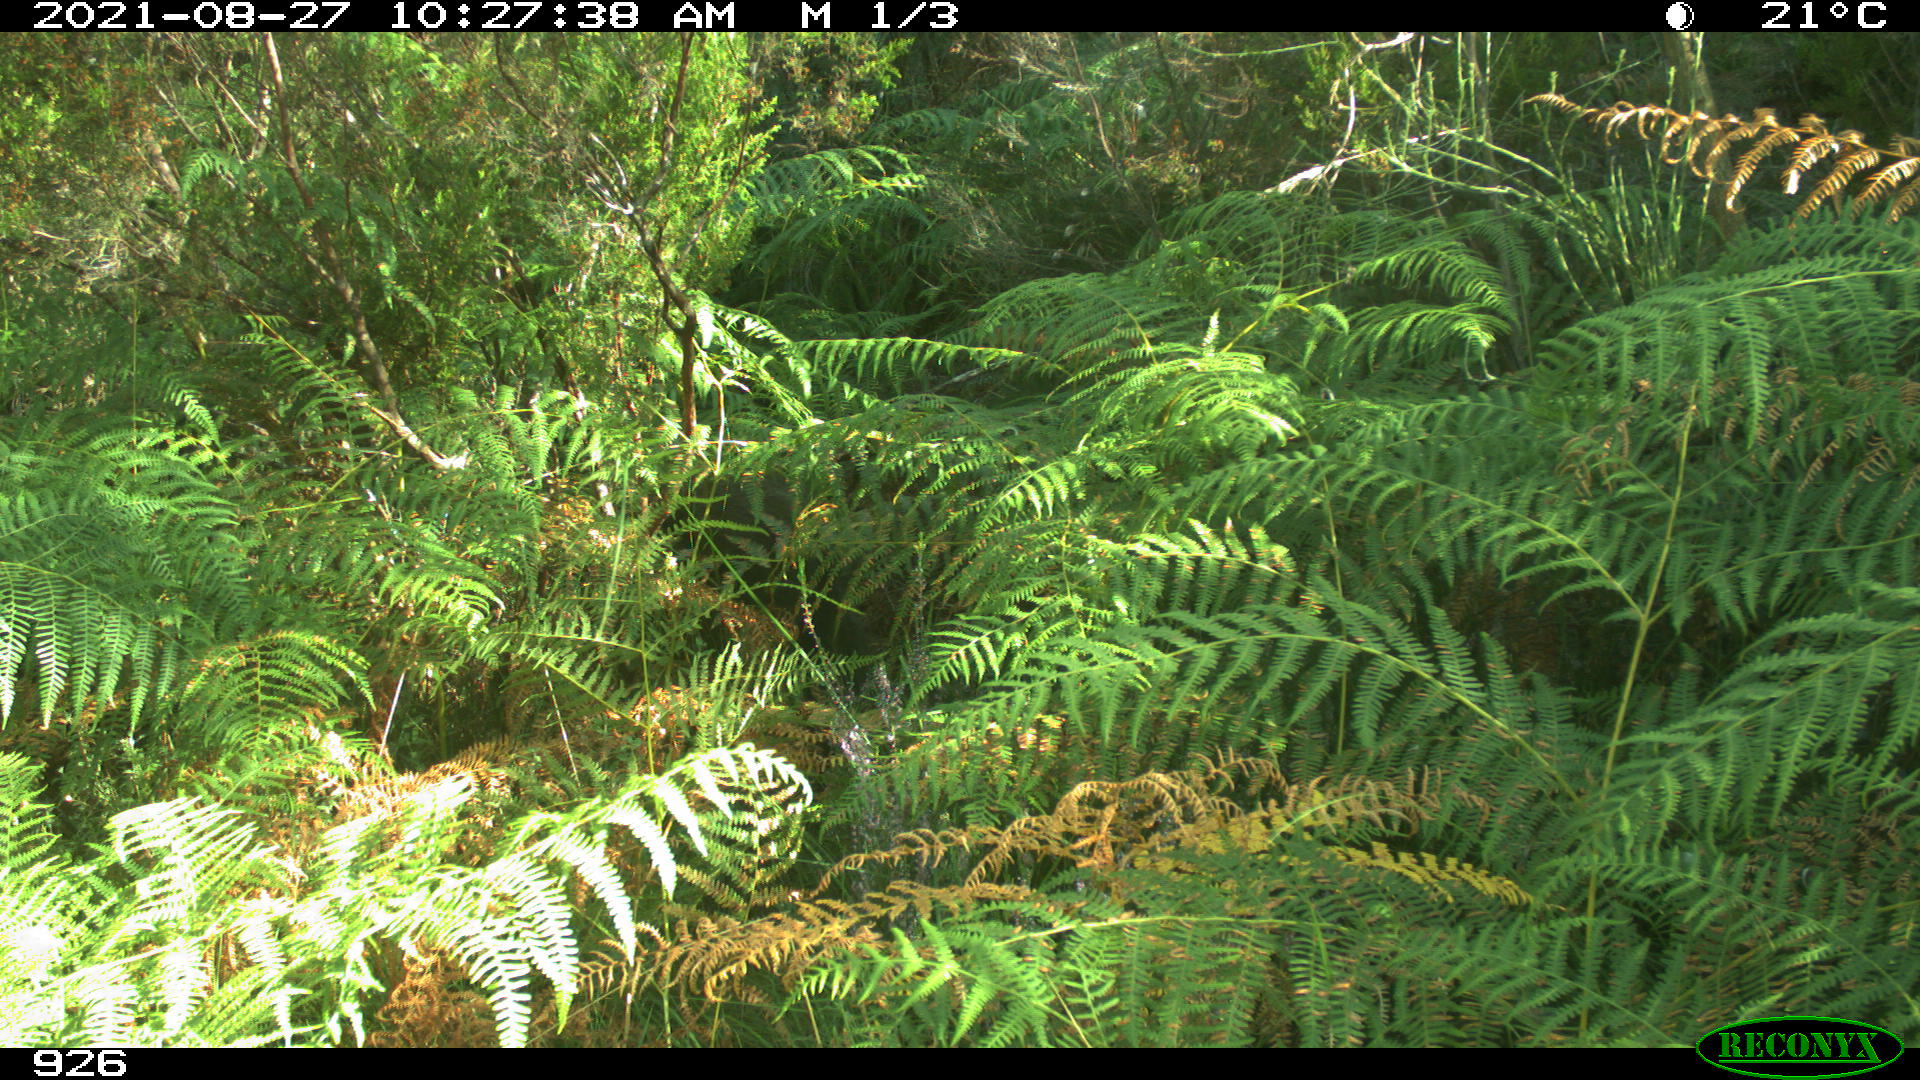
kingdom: Animalia
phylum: Chordata
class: Mammalia
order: Artiodactyla
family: Suidae
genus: Sus
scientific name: Sus scrofa
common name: Wild boar
